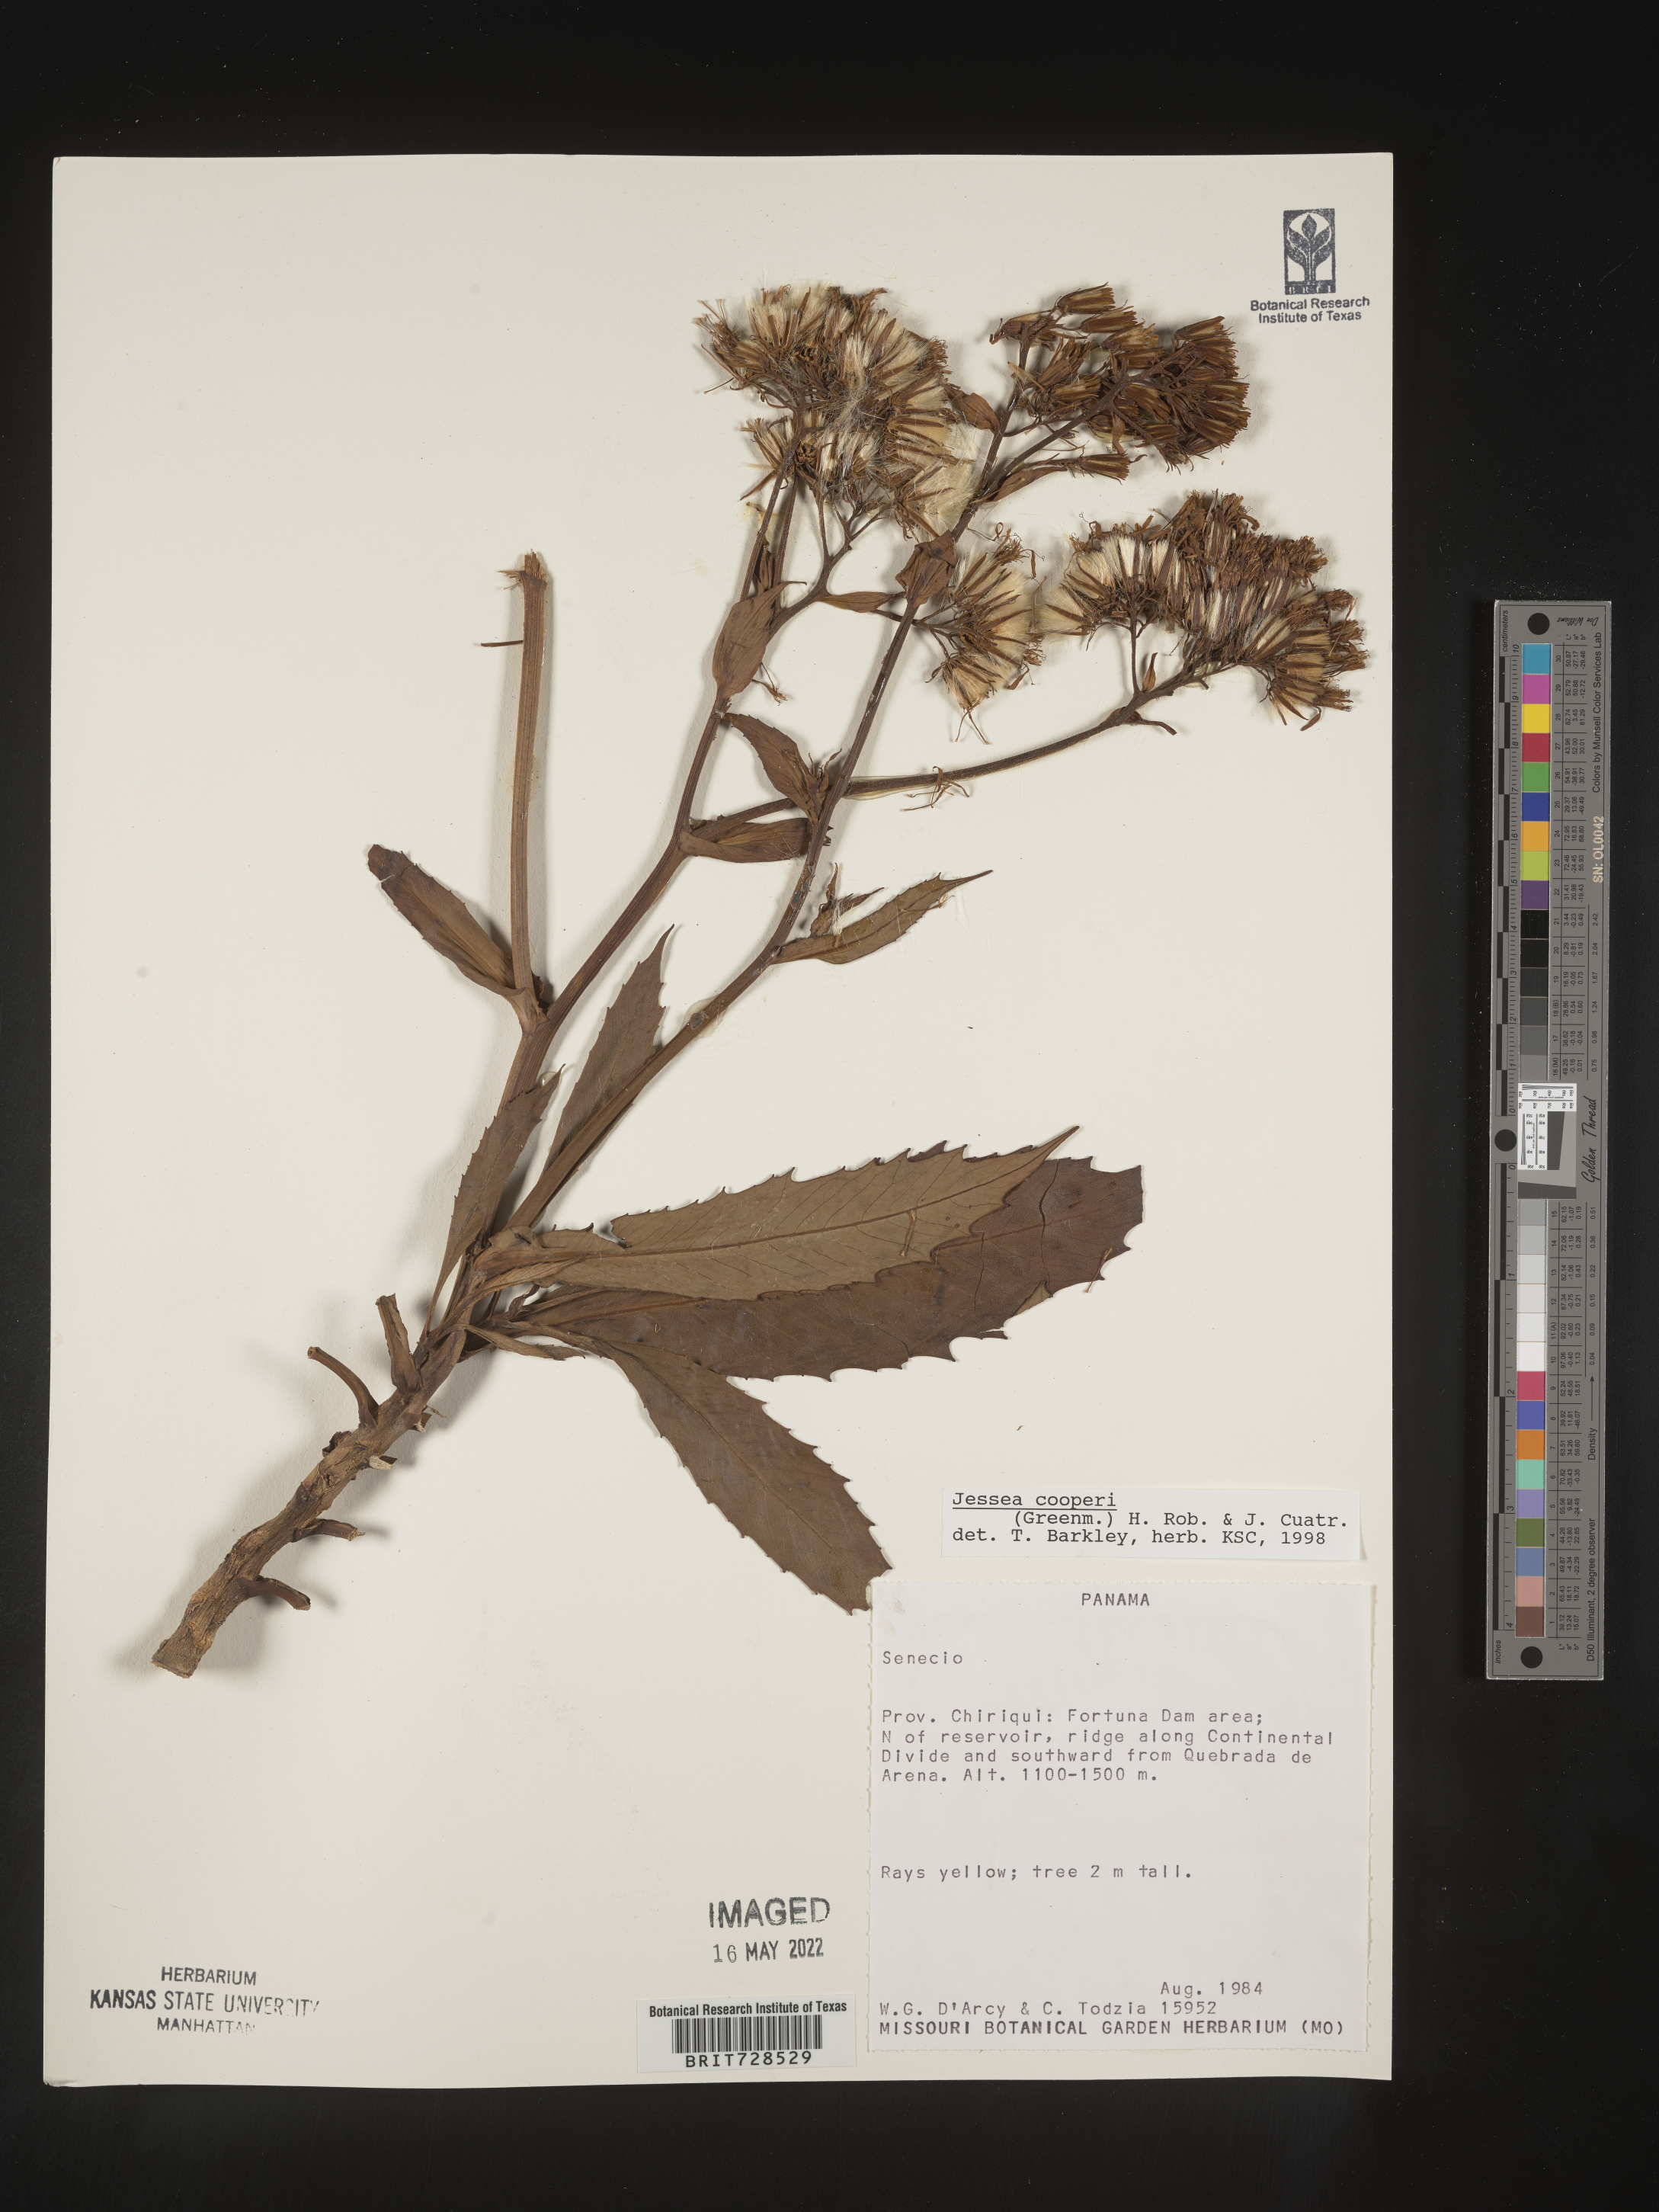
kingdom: Plantae
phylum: Tracheophyta
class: Magnoliopsida
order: Asterales
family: Asteraceae
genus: Jessea
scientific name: Jessea
